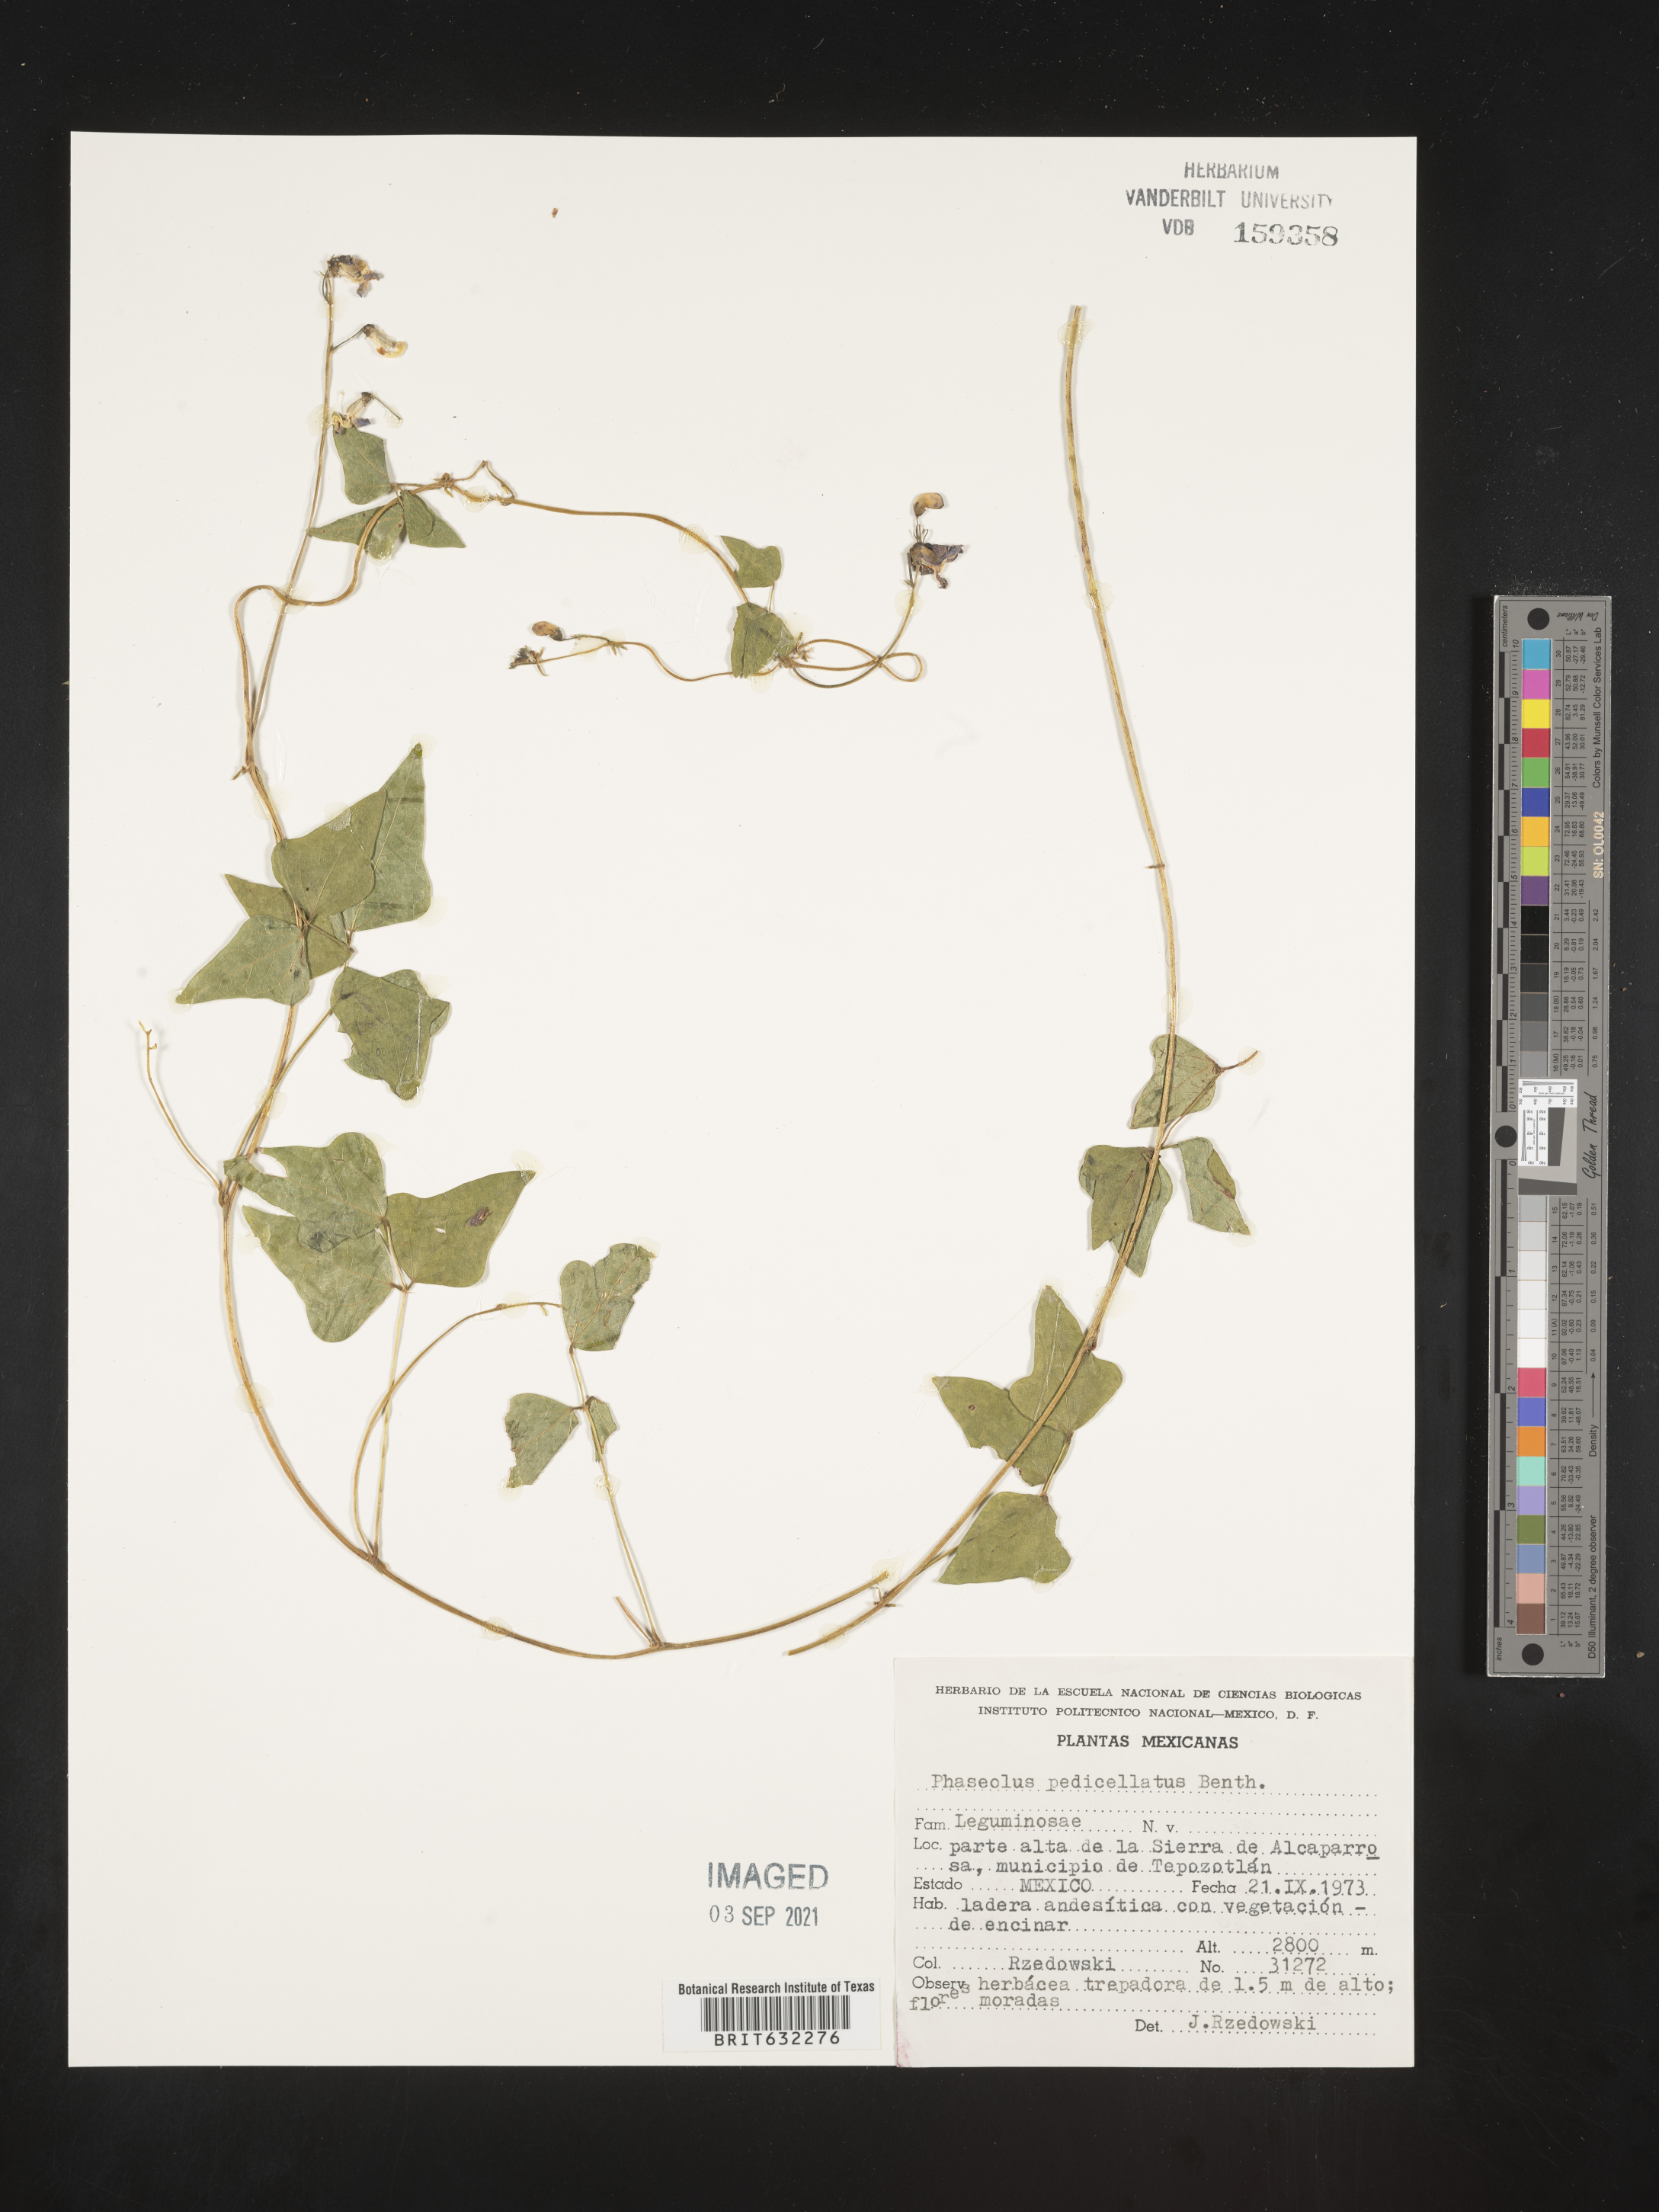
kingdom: Plantae
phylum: Tracheophyta
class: Magnoliopsida
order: Fabales
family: Fabaceae
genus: Phaseolus
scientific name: Phaseolus
